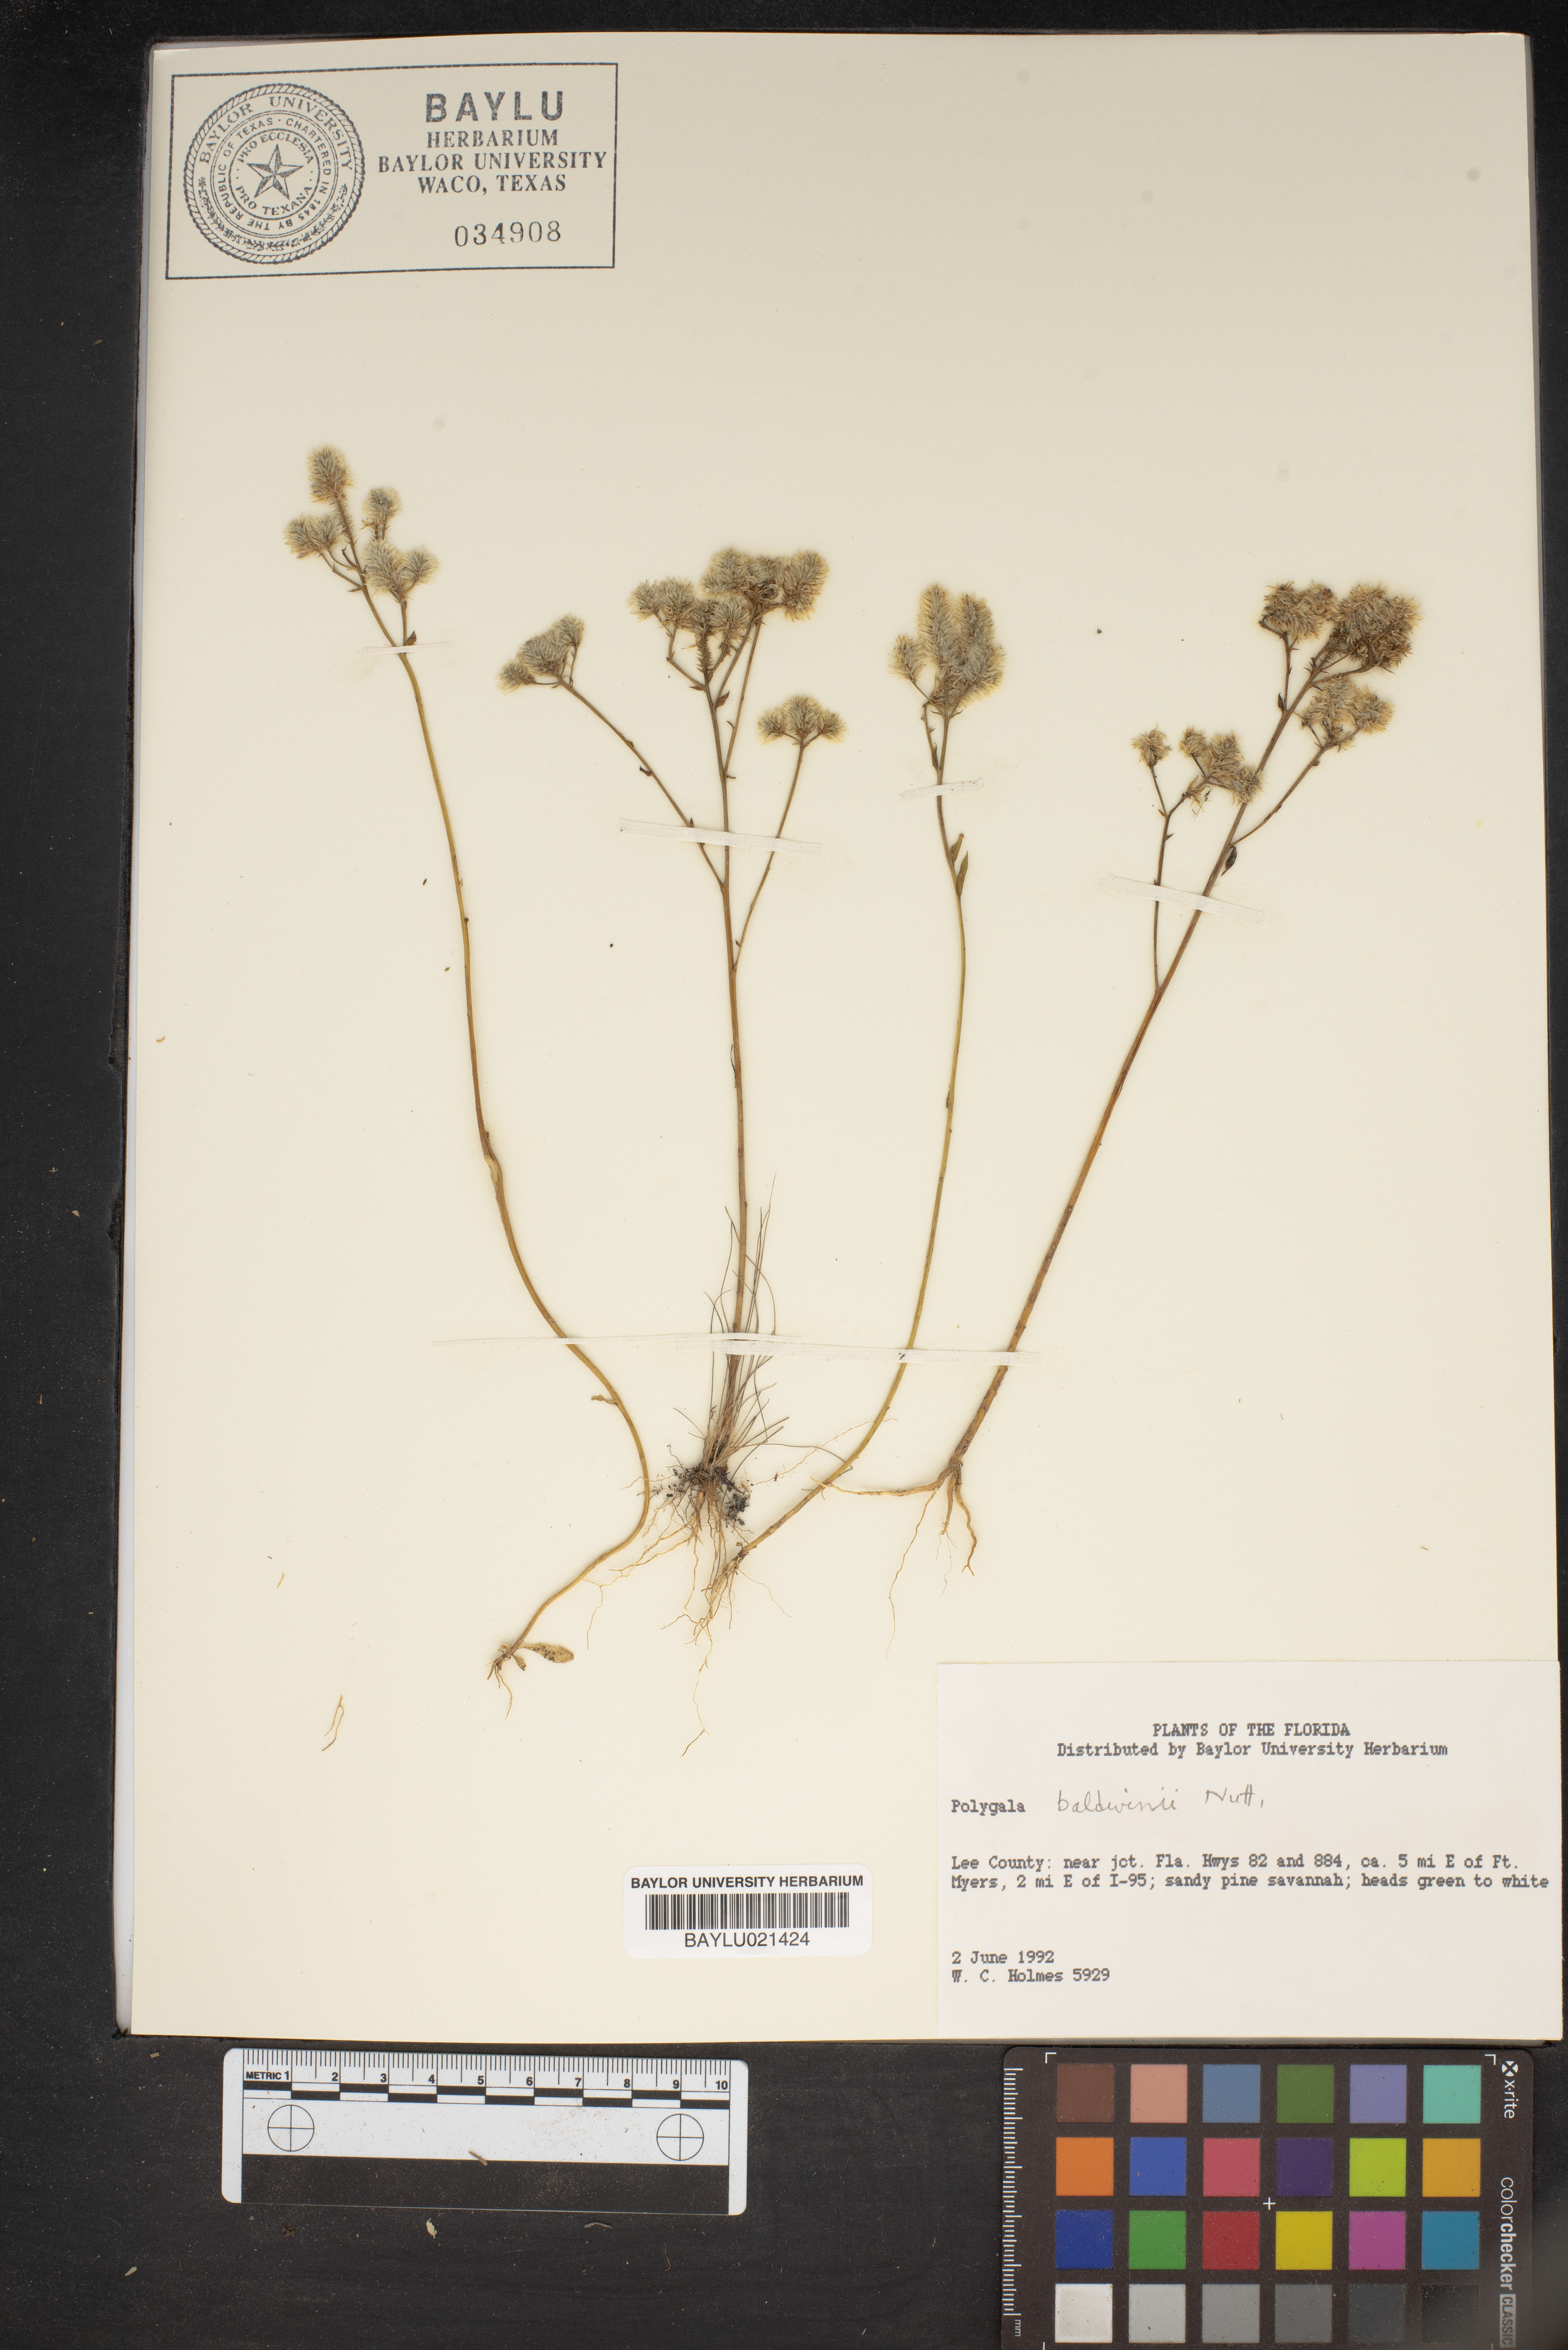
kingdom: Plantae
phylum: Tracheophyta
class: Magnoliopsida
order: Fabales
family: Polygalaceae
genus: Polygala
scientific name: Polygala baldwinii
